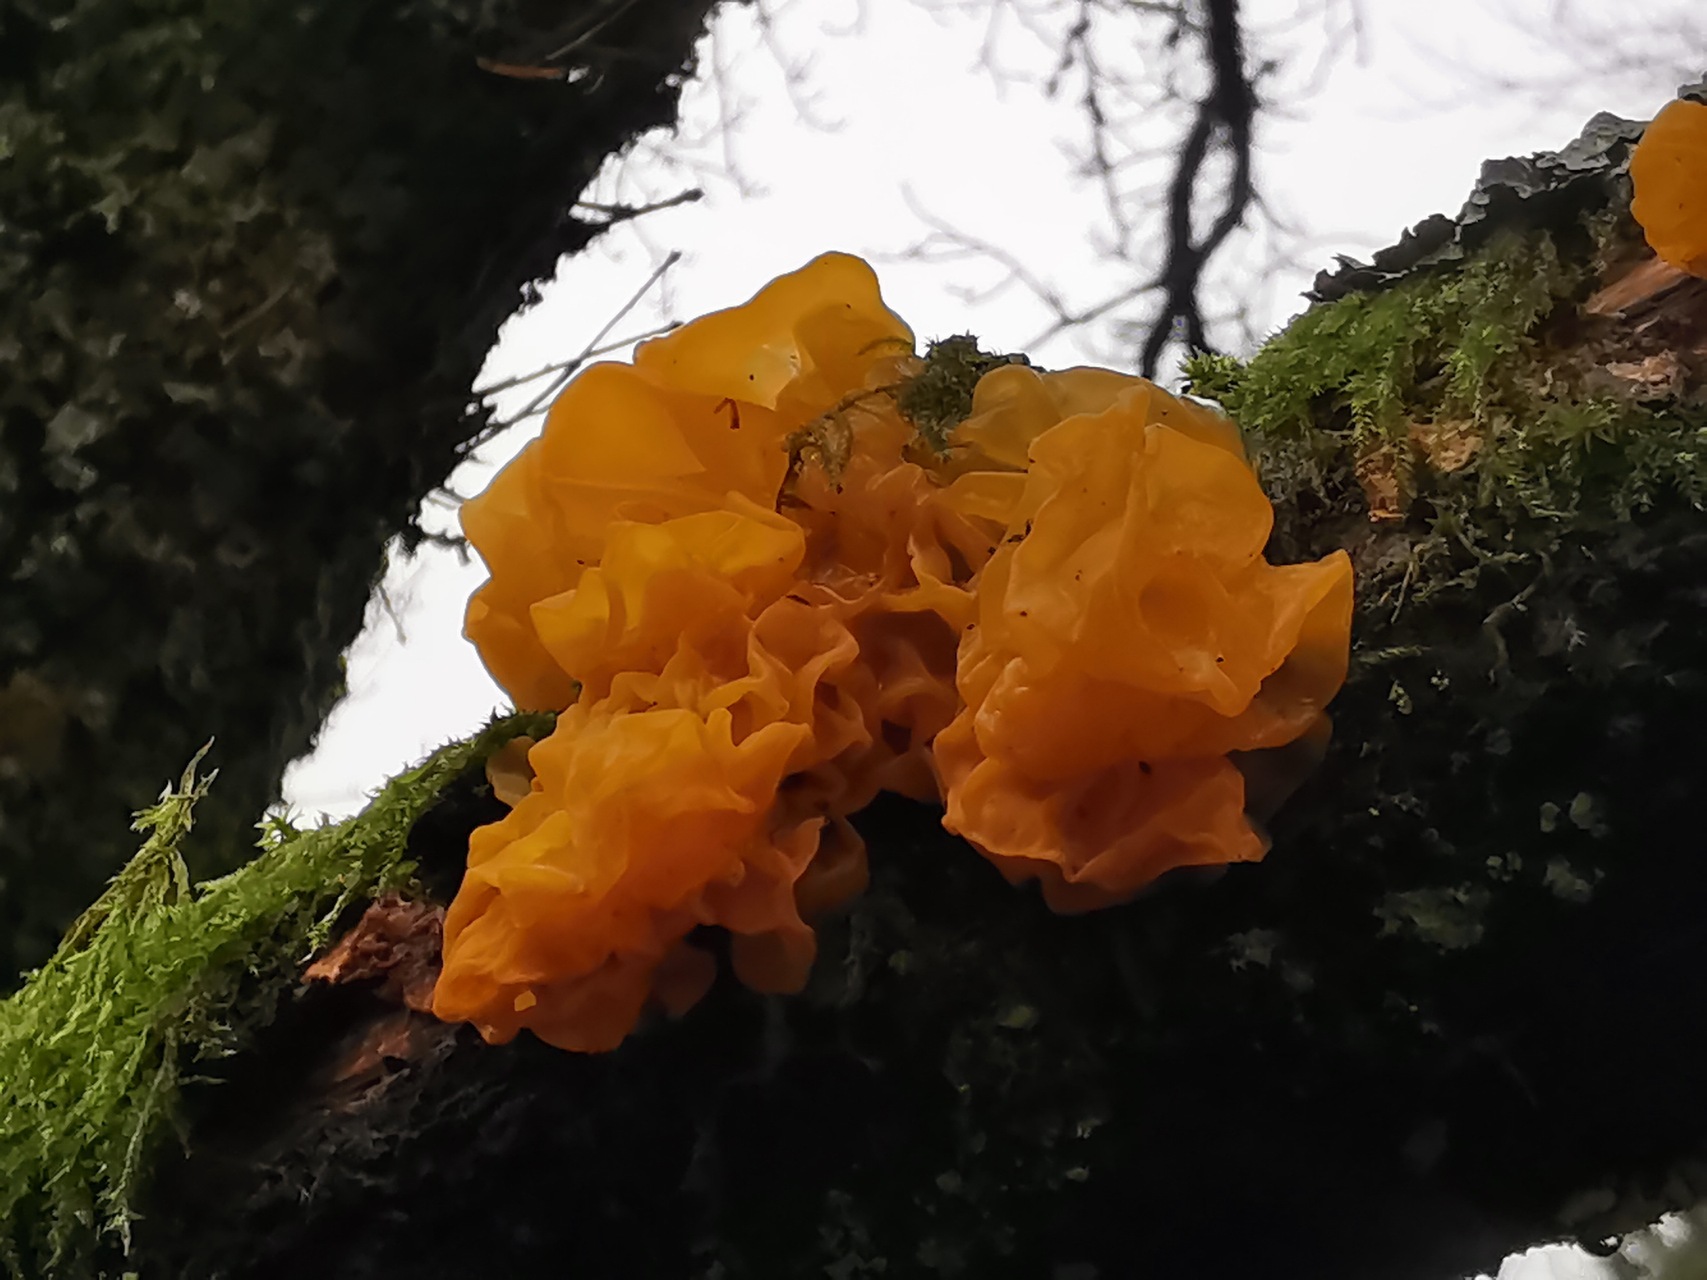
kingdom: Fungi
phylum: Basidiomycota
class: Tremellomycetes
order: Tremellales
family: Tremellaceae
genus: Tremella
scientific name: Tremella mesenterica
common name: Gul bævresvamp
